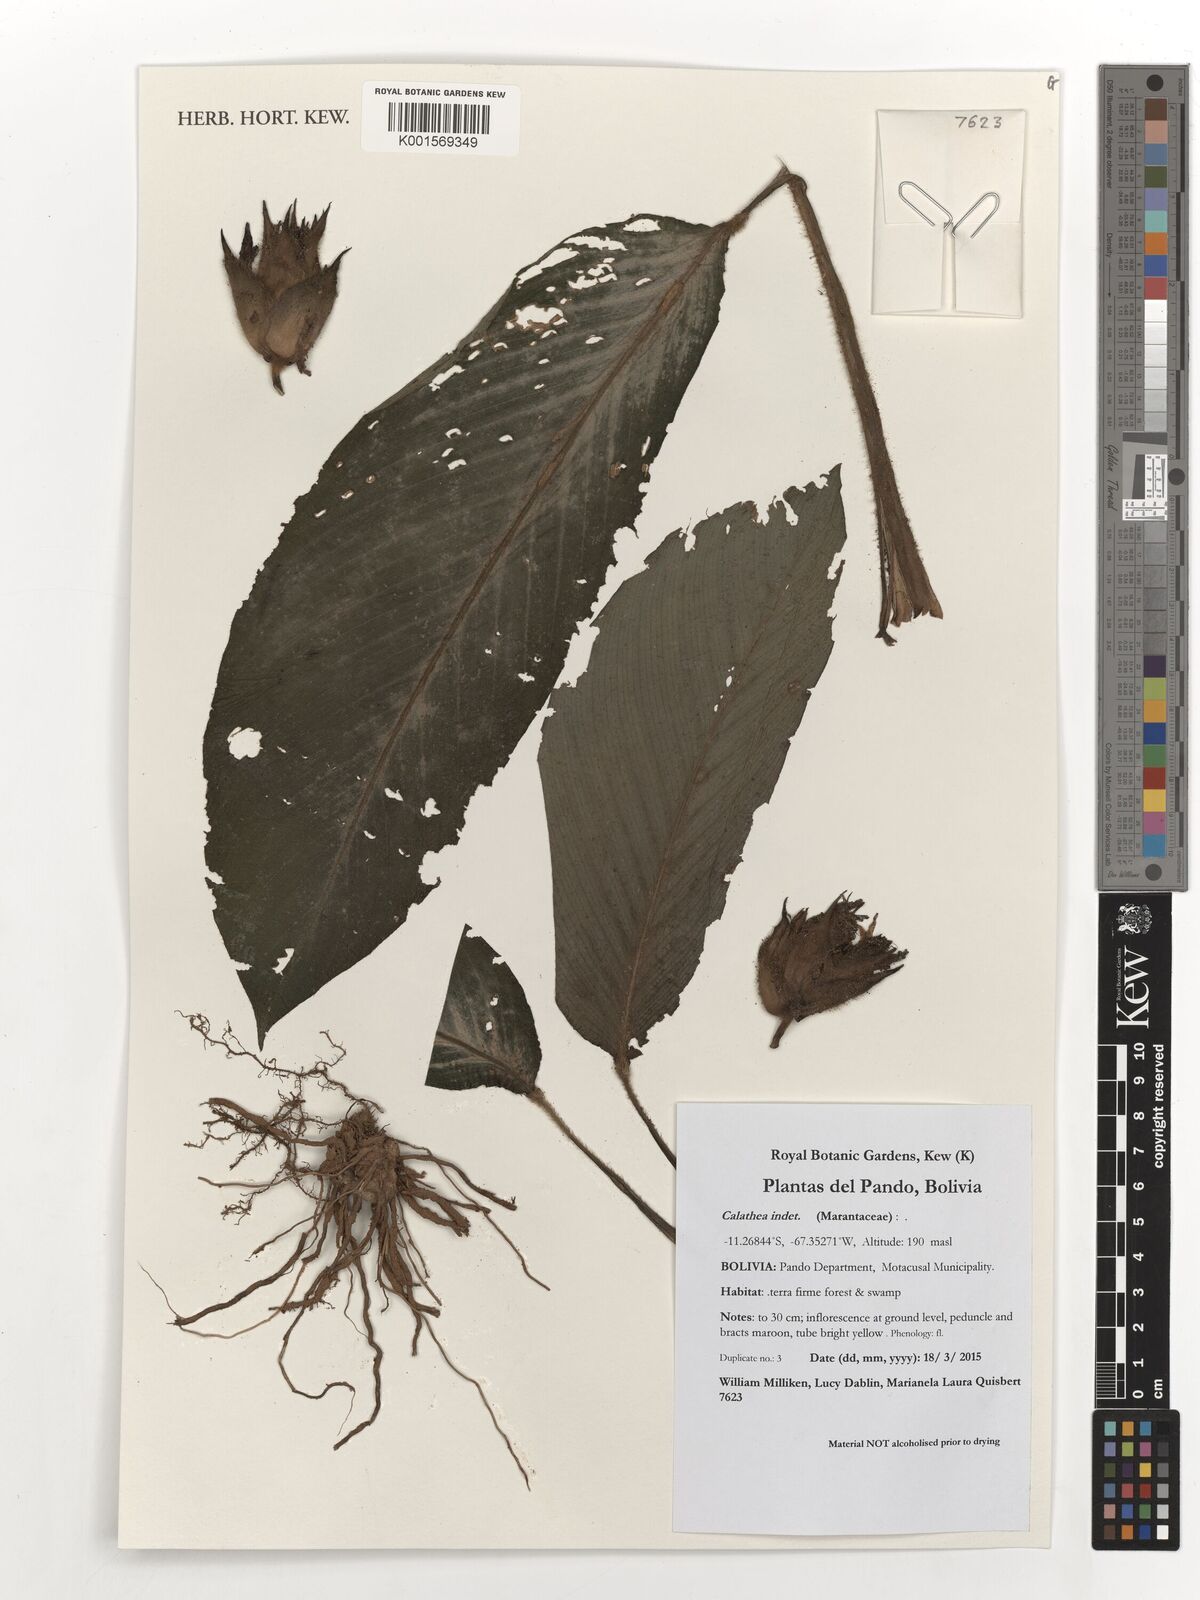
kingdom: Plantae
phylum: Tracheophyta
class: Liliopsida
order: Zingiberales
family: Marantaceae
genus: Calathea
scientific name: Calathea
